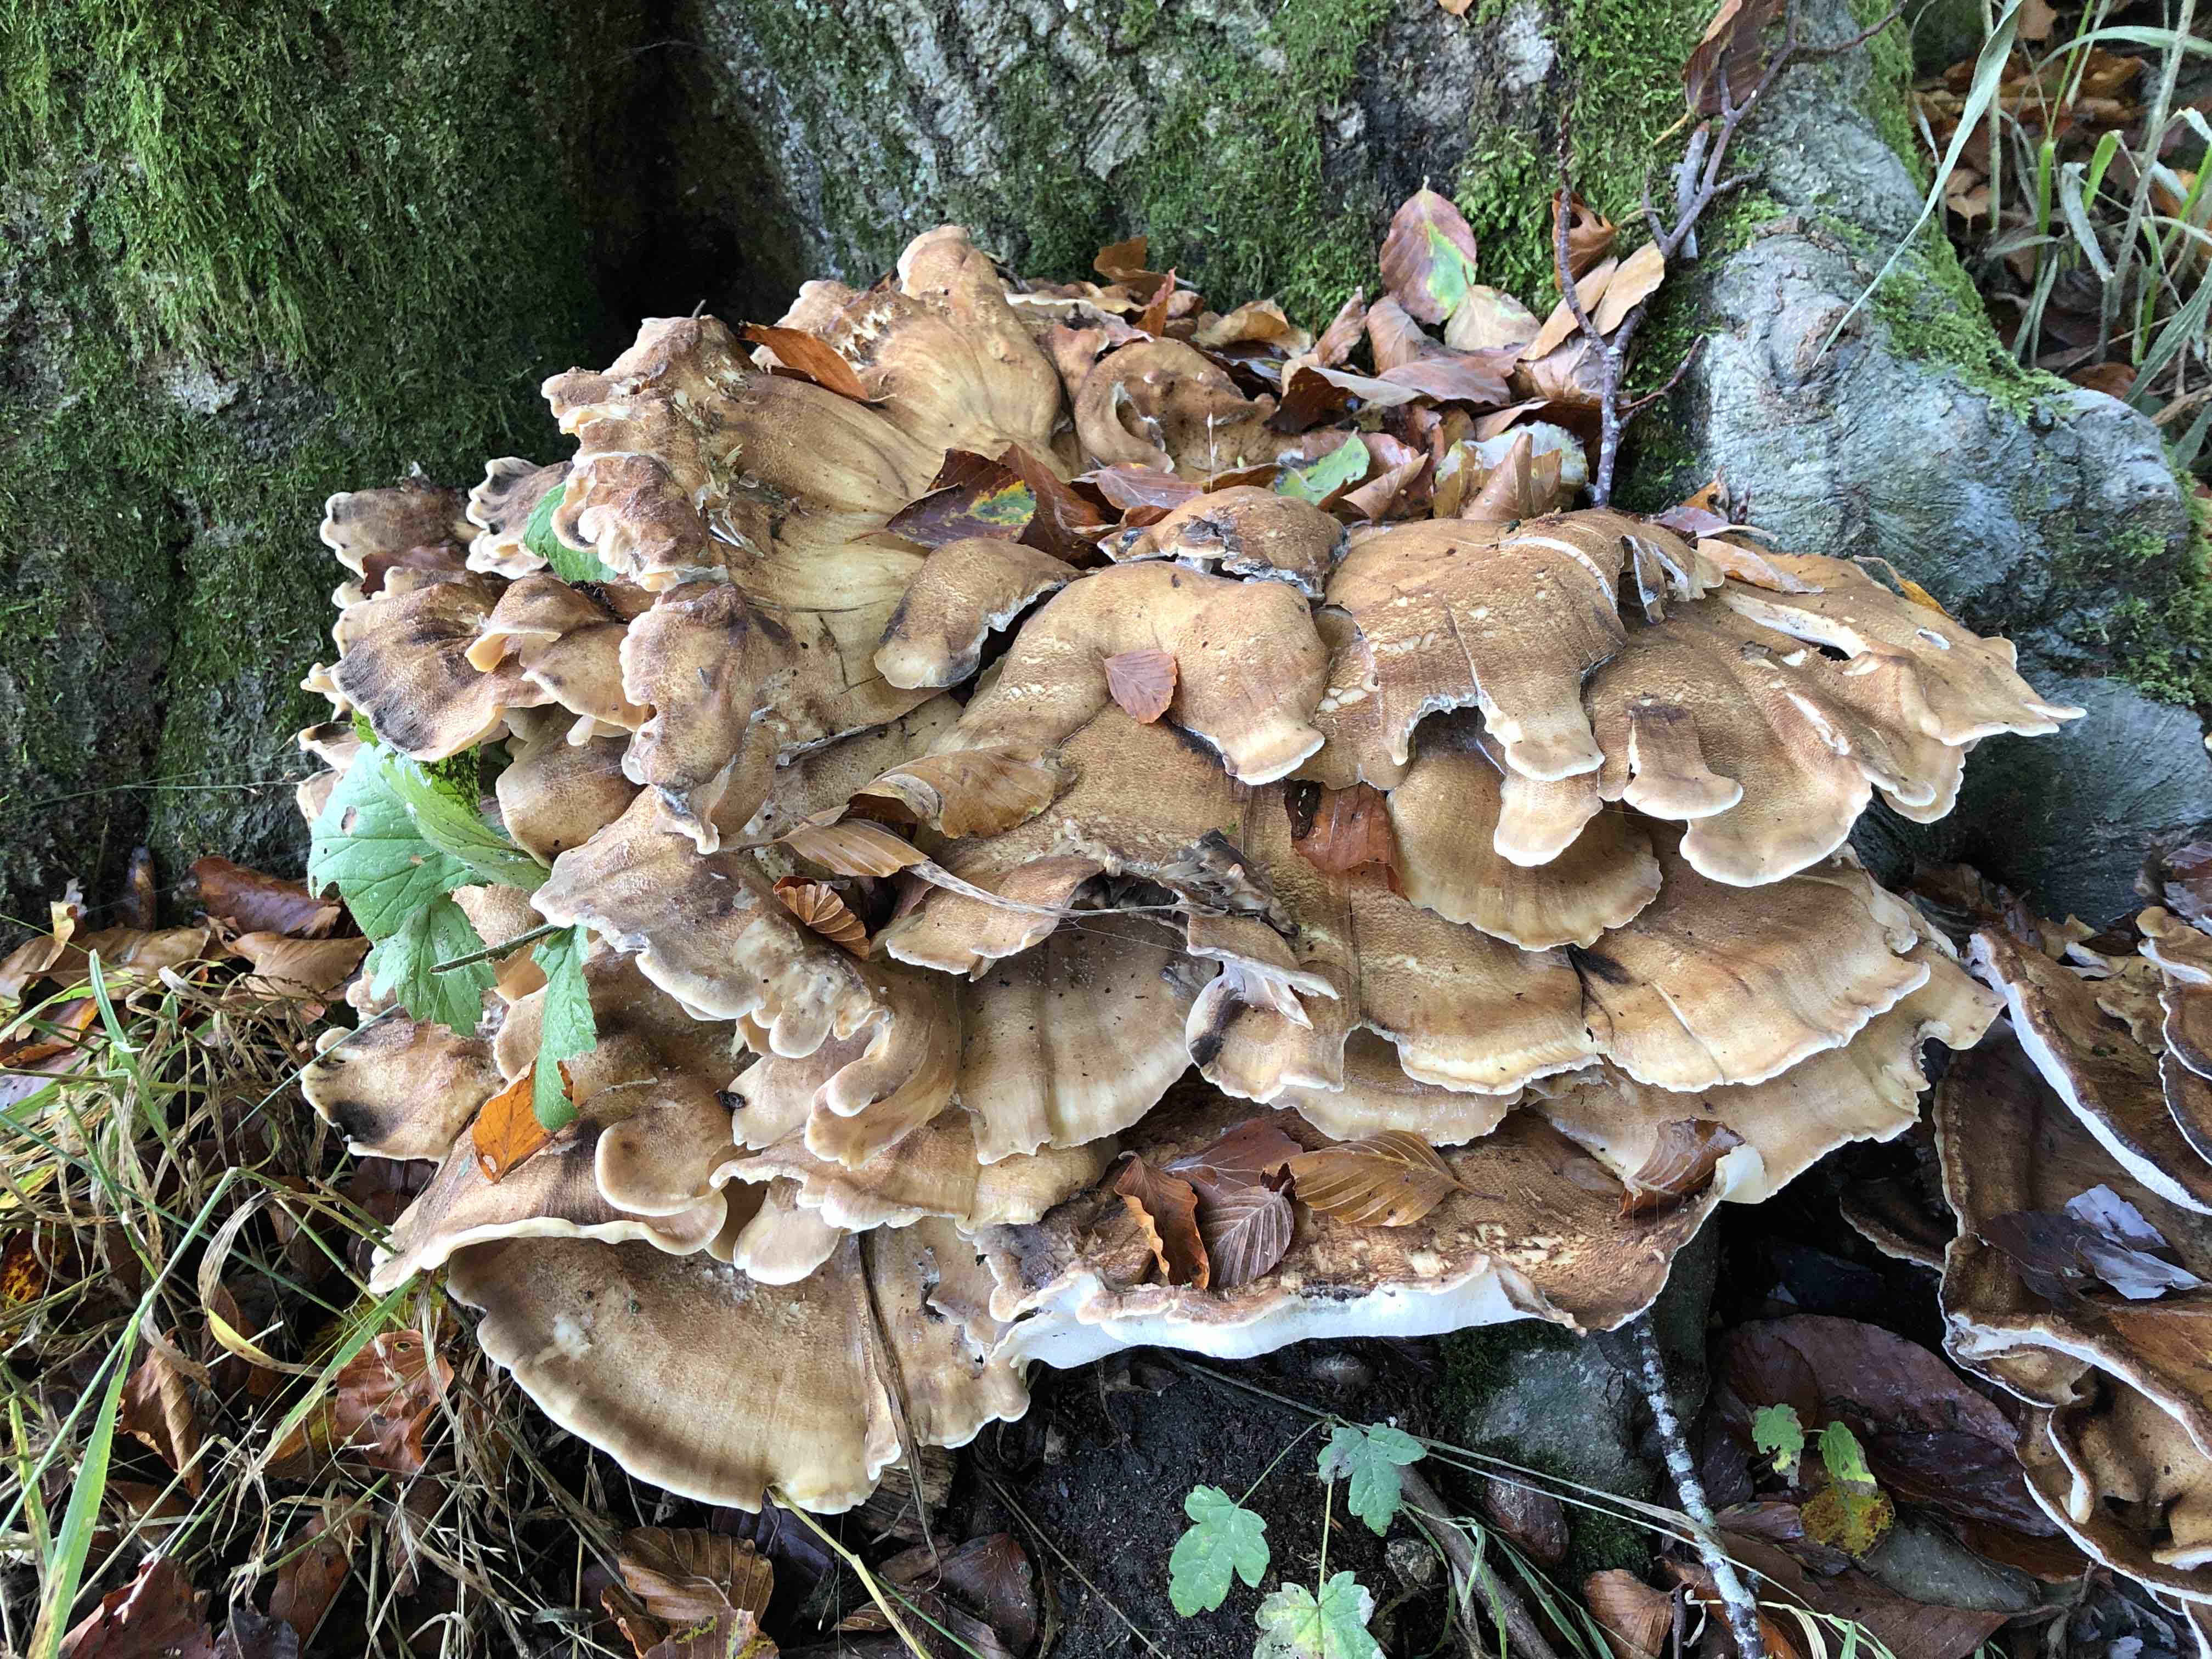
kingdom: Fungi
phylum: Basidiomycota
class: Agaricomycetes
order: Polyporales
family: Meripilaceae
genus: Meripilus
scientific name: Meripilus giganteus
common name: kæmpeporesvamp
